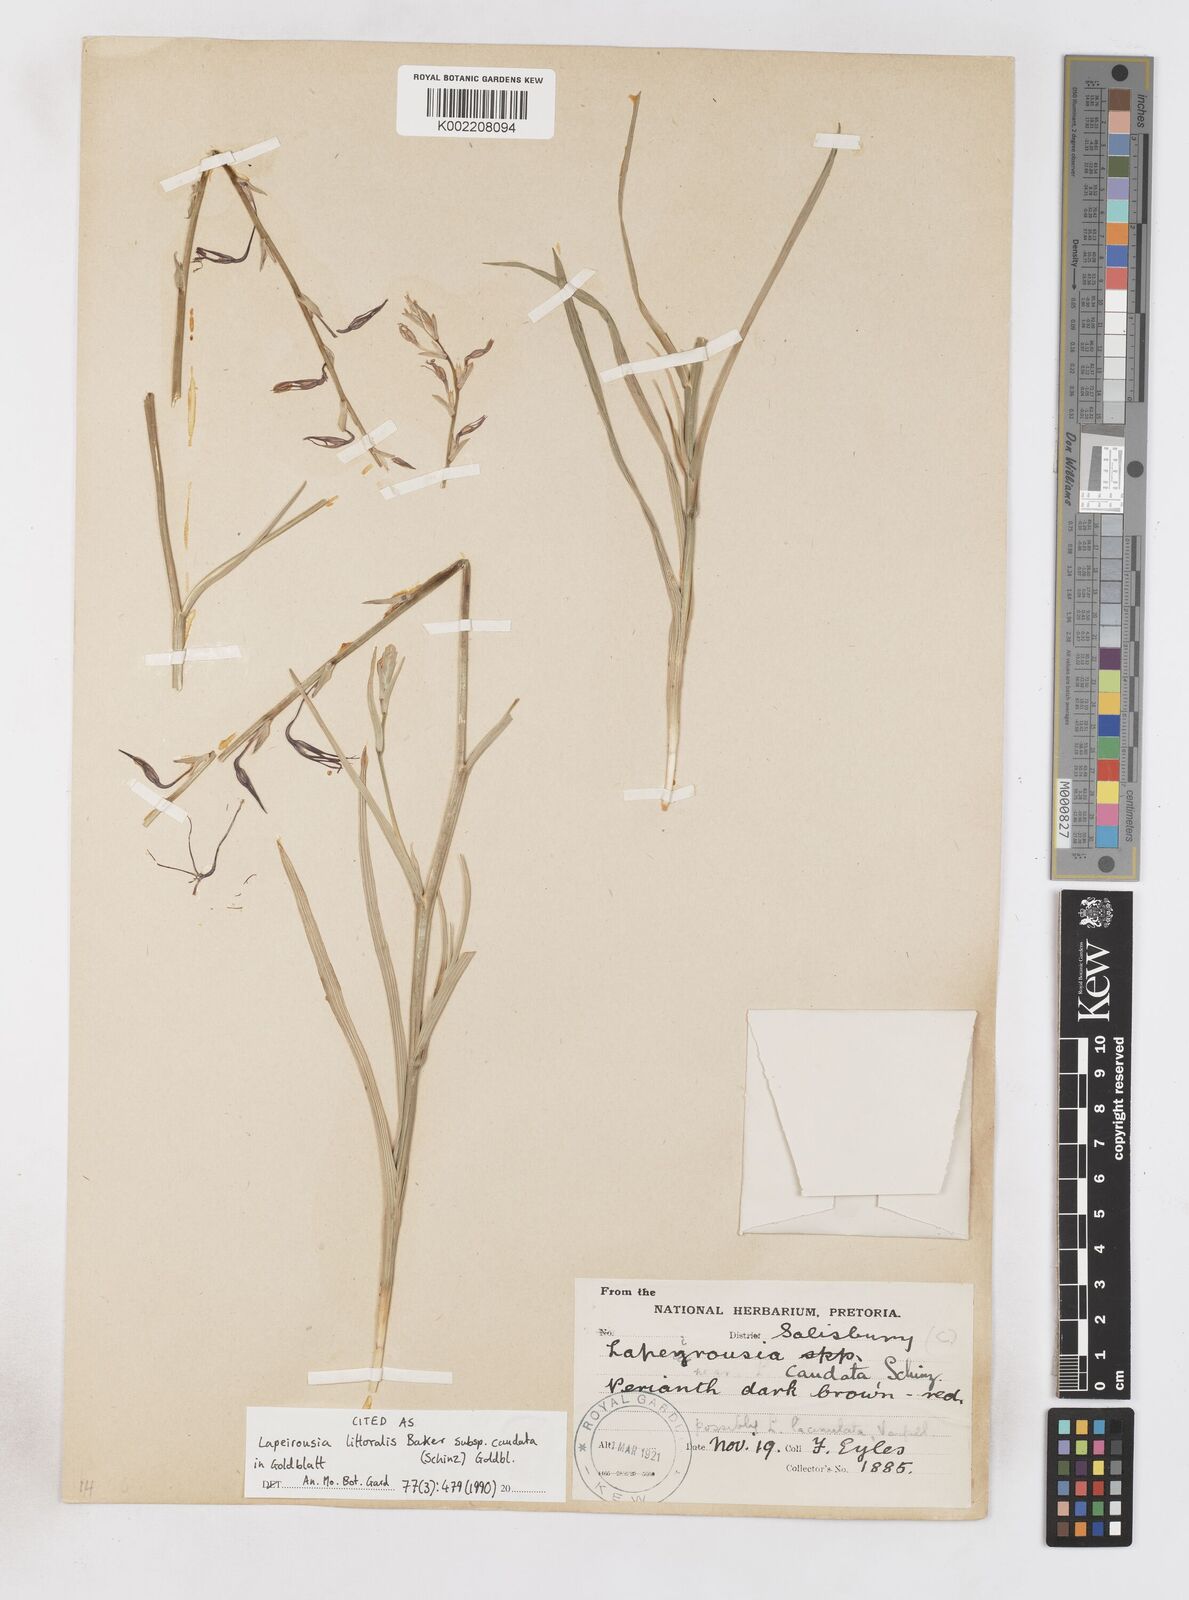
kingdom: Plantae
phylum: Tracheophyta
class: Liliopsida
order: Asparagales
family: Iridaceae
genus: Lapeirousia
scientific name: Lapeirousia caudata
